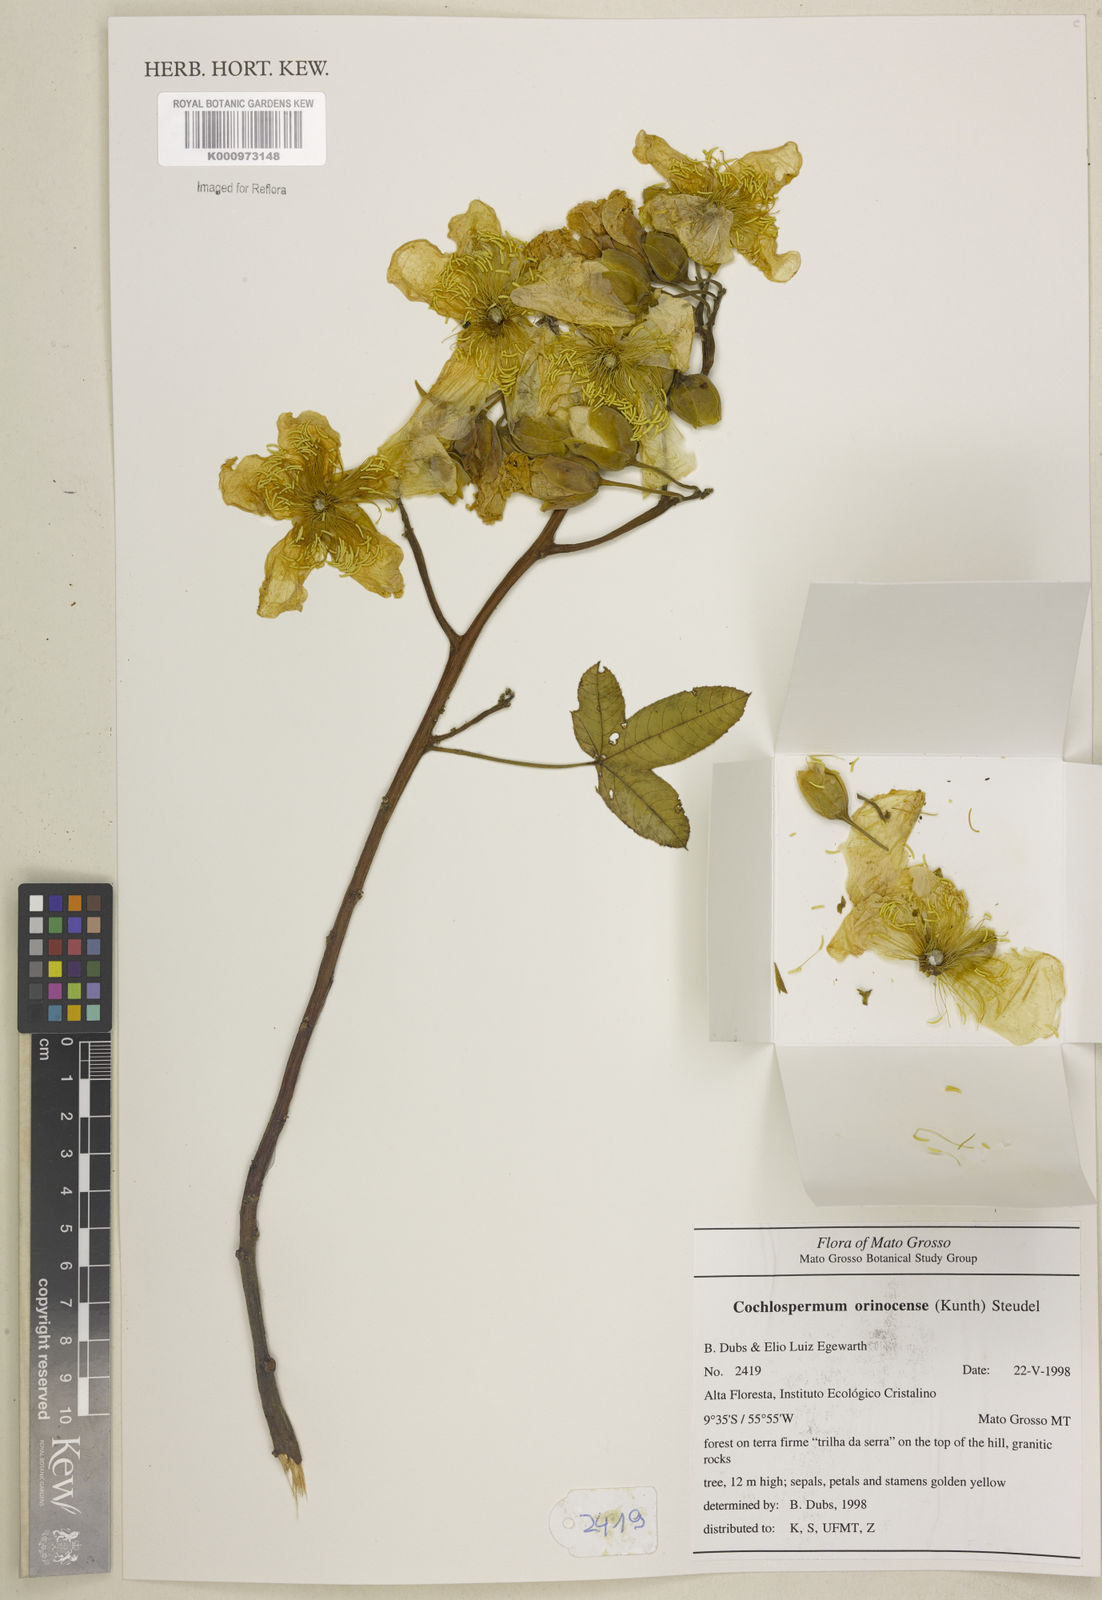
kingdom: Plantae
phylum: Tracheophyta
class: Magnoliopsida
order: Malvales
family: Cochlospermaceae
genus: Cochlospermum
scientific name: Cochlospermum orinocense
